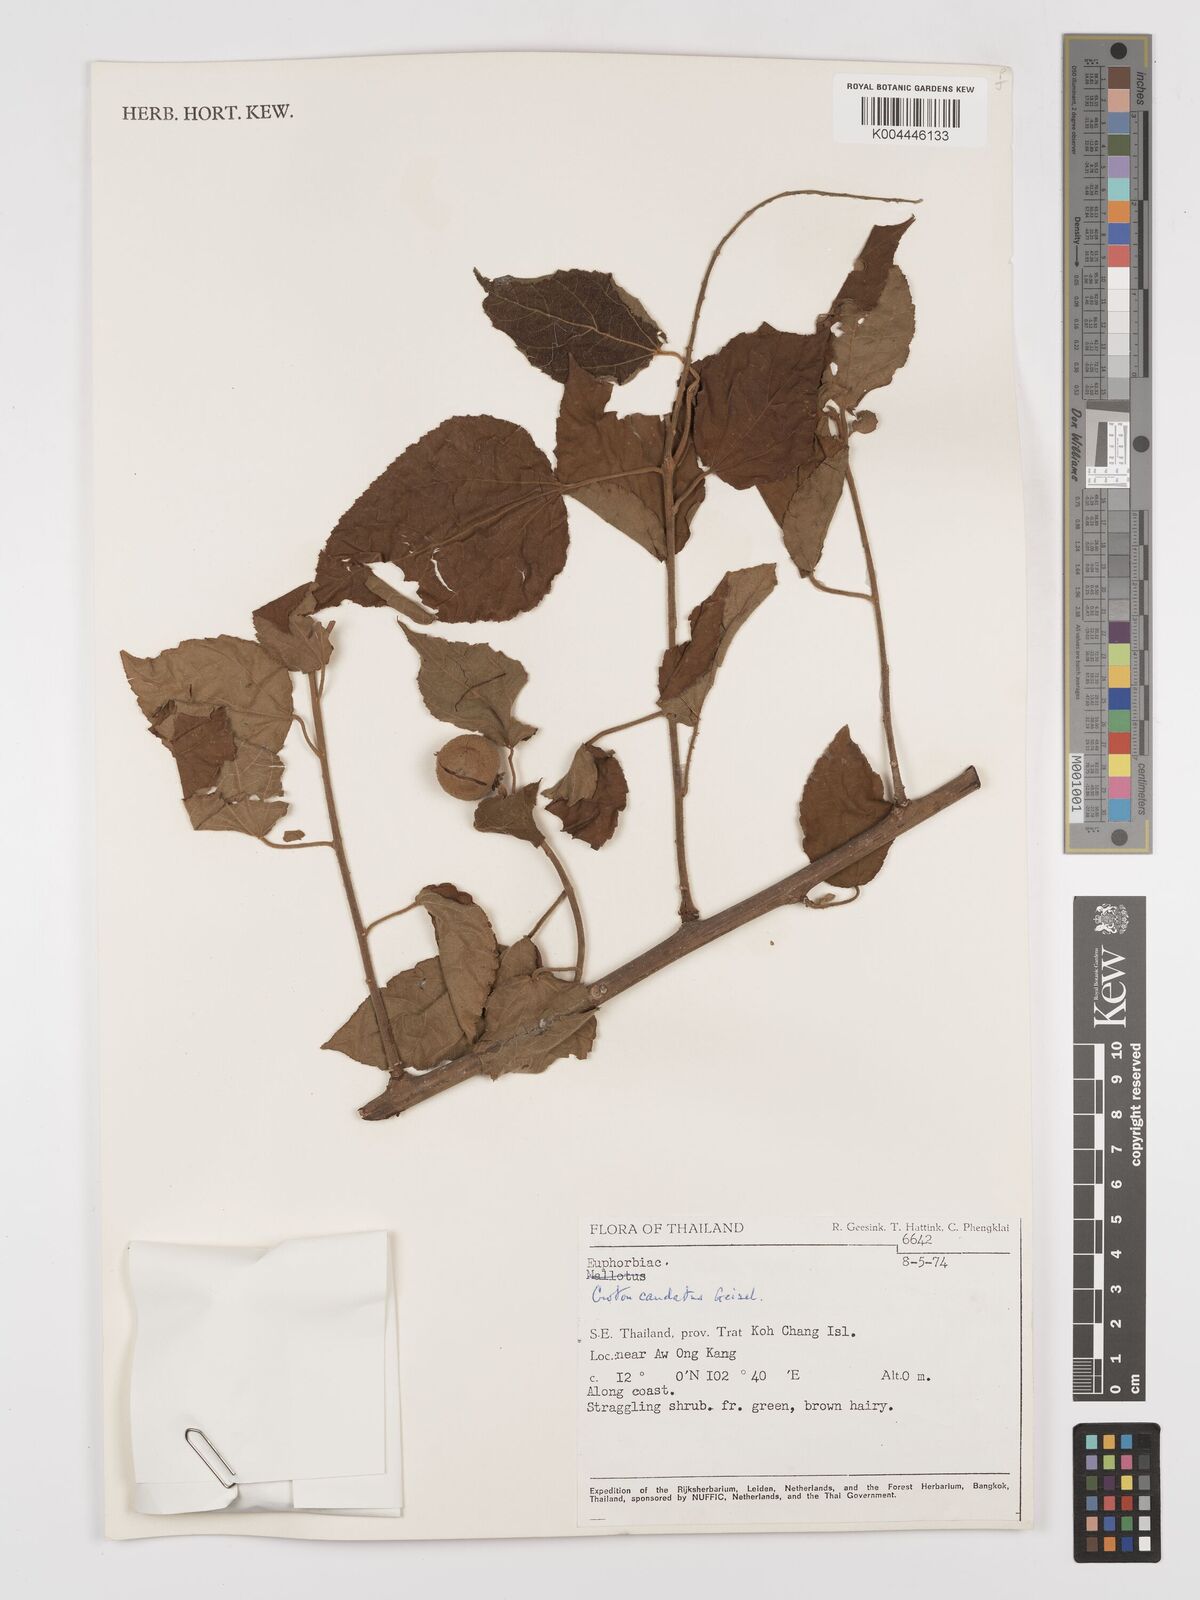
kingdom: Plantae
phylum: Tracheophyta
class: Magnoliopsida
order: Malpighiales
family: Euphorbiaceae
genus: Croton
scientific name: Croton caudatus
